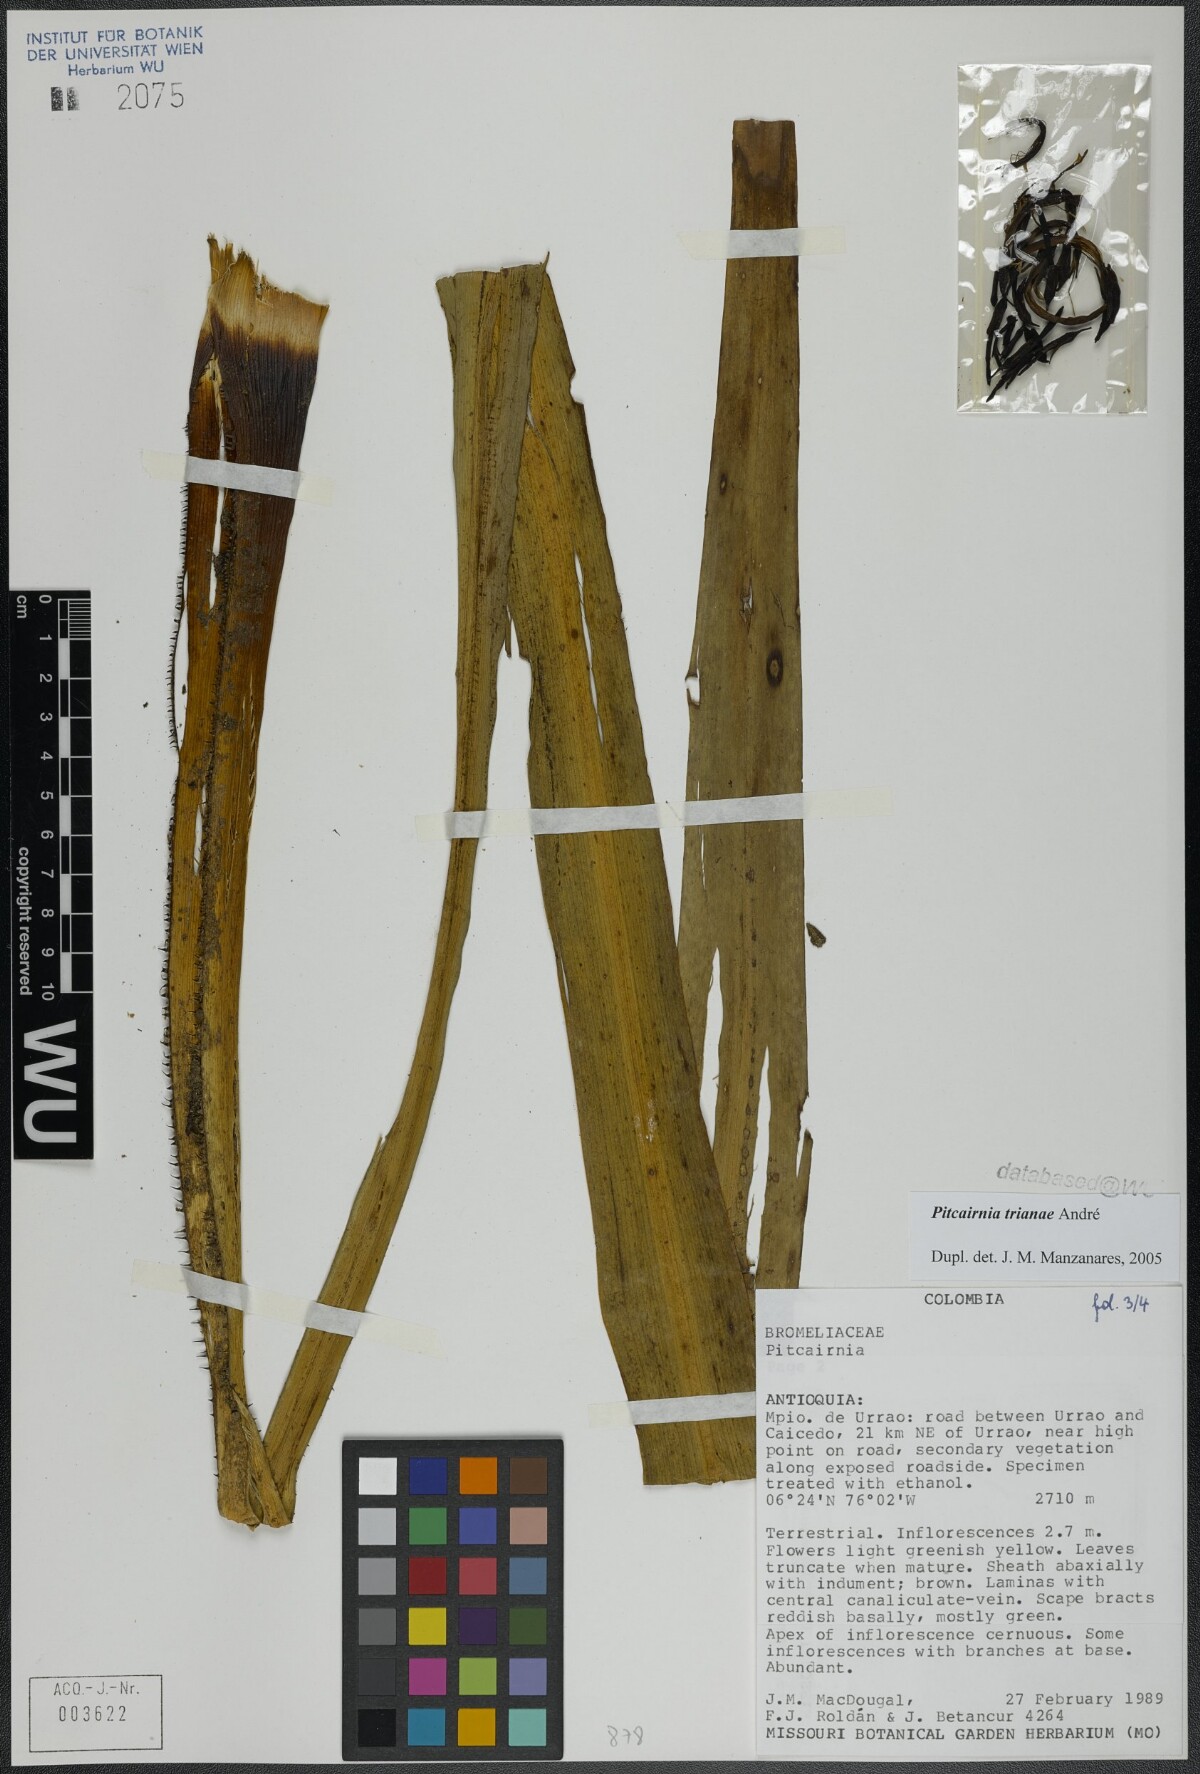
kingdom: Plantae
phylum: Tracheophyta
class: Liliopsida
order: Poales
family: Bromeliaceae
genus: Pitcairnia
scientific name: Pitcairnia trianae
